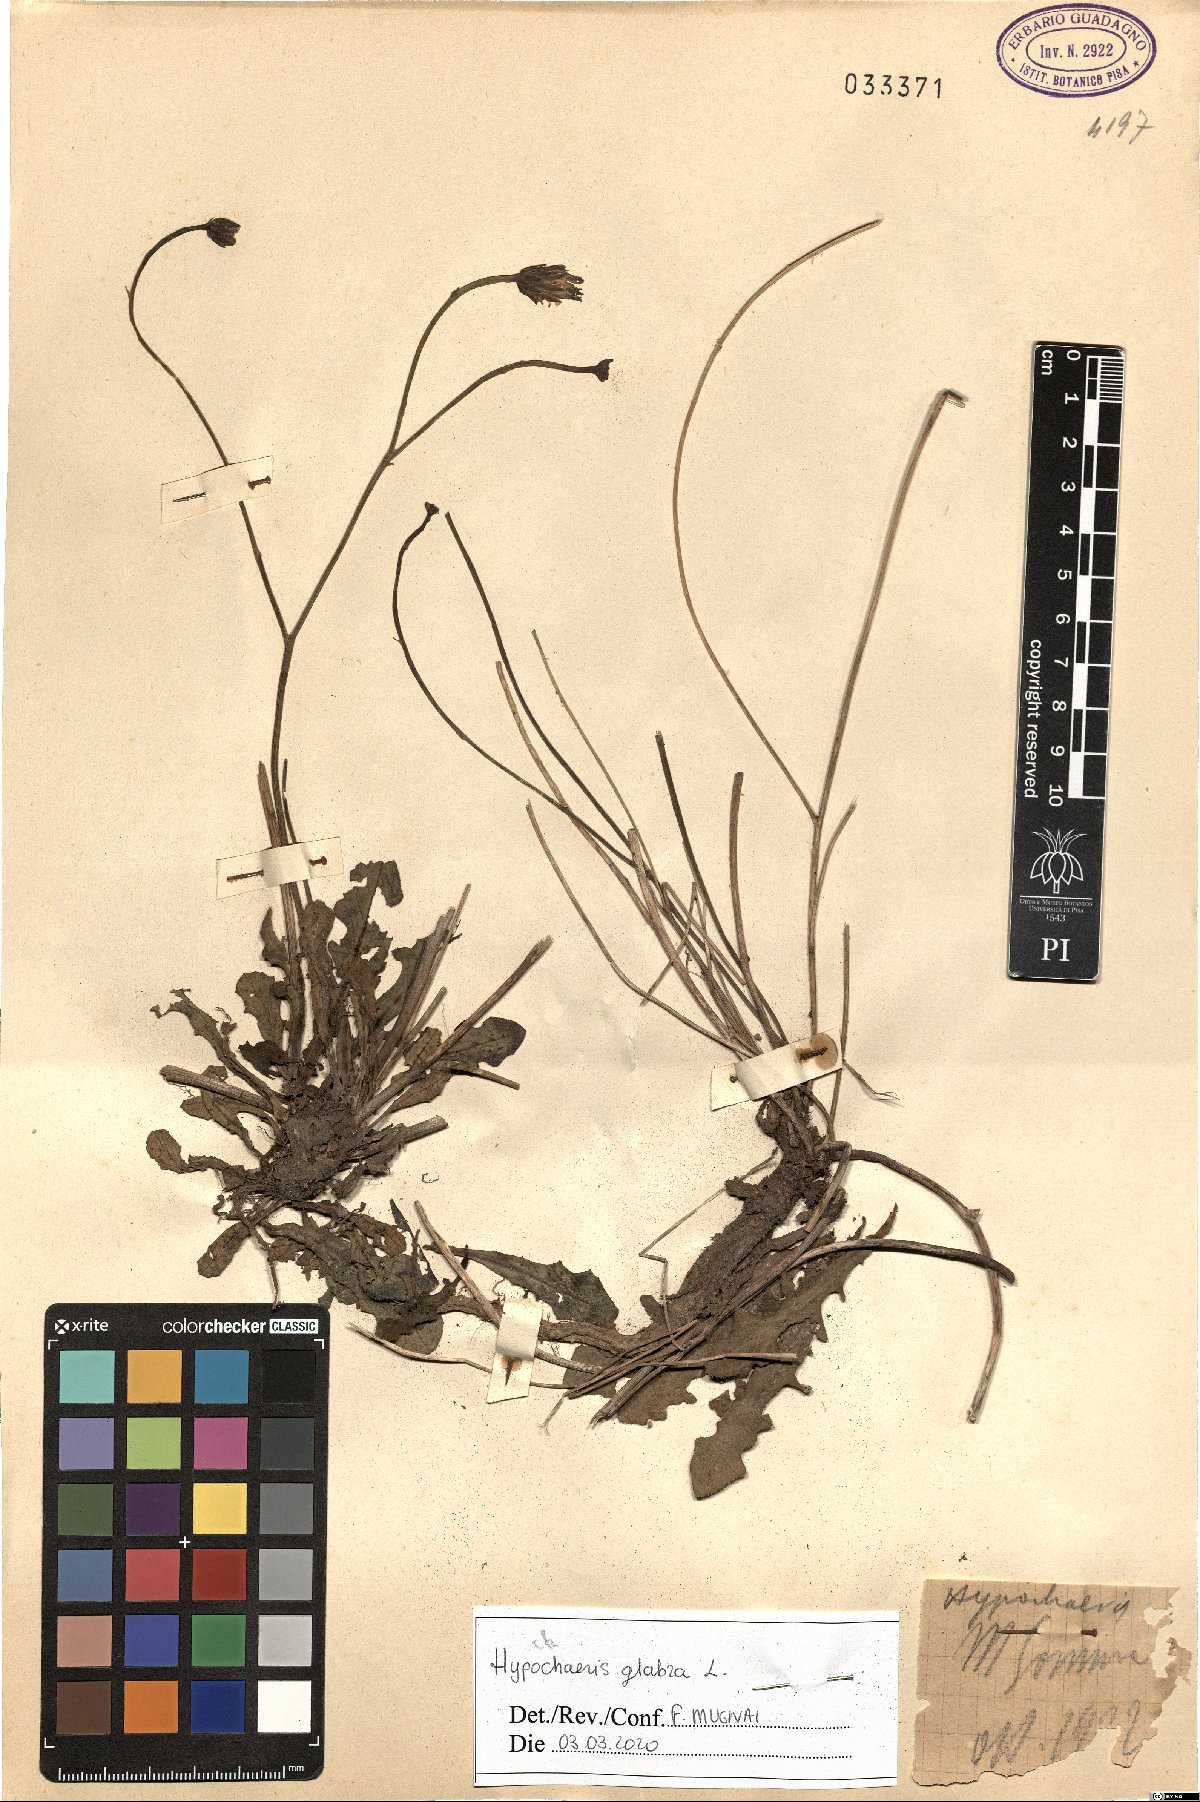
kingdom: Plantae
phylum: Tracheophyta
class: Magnoliopsida
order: Asterales
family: Asteraceae
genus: Hypochaeris
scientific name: Hypochaeris glabra
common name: Smooth catsear
